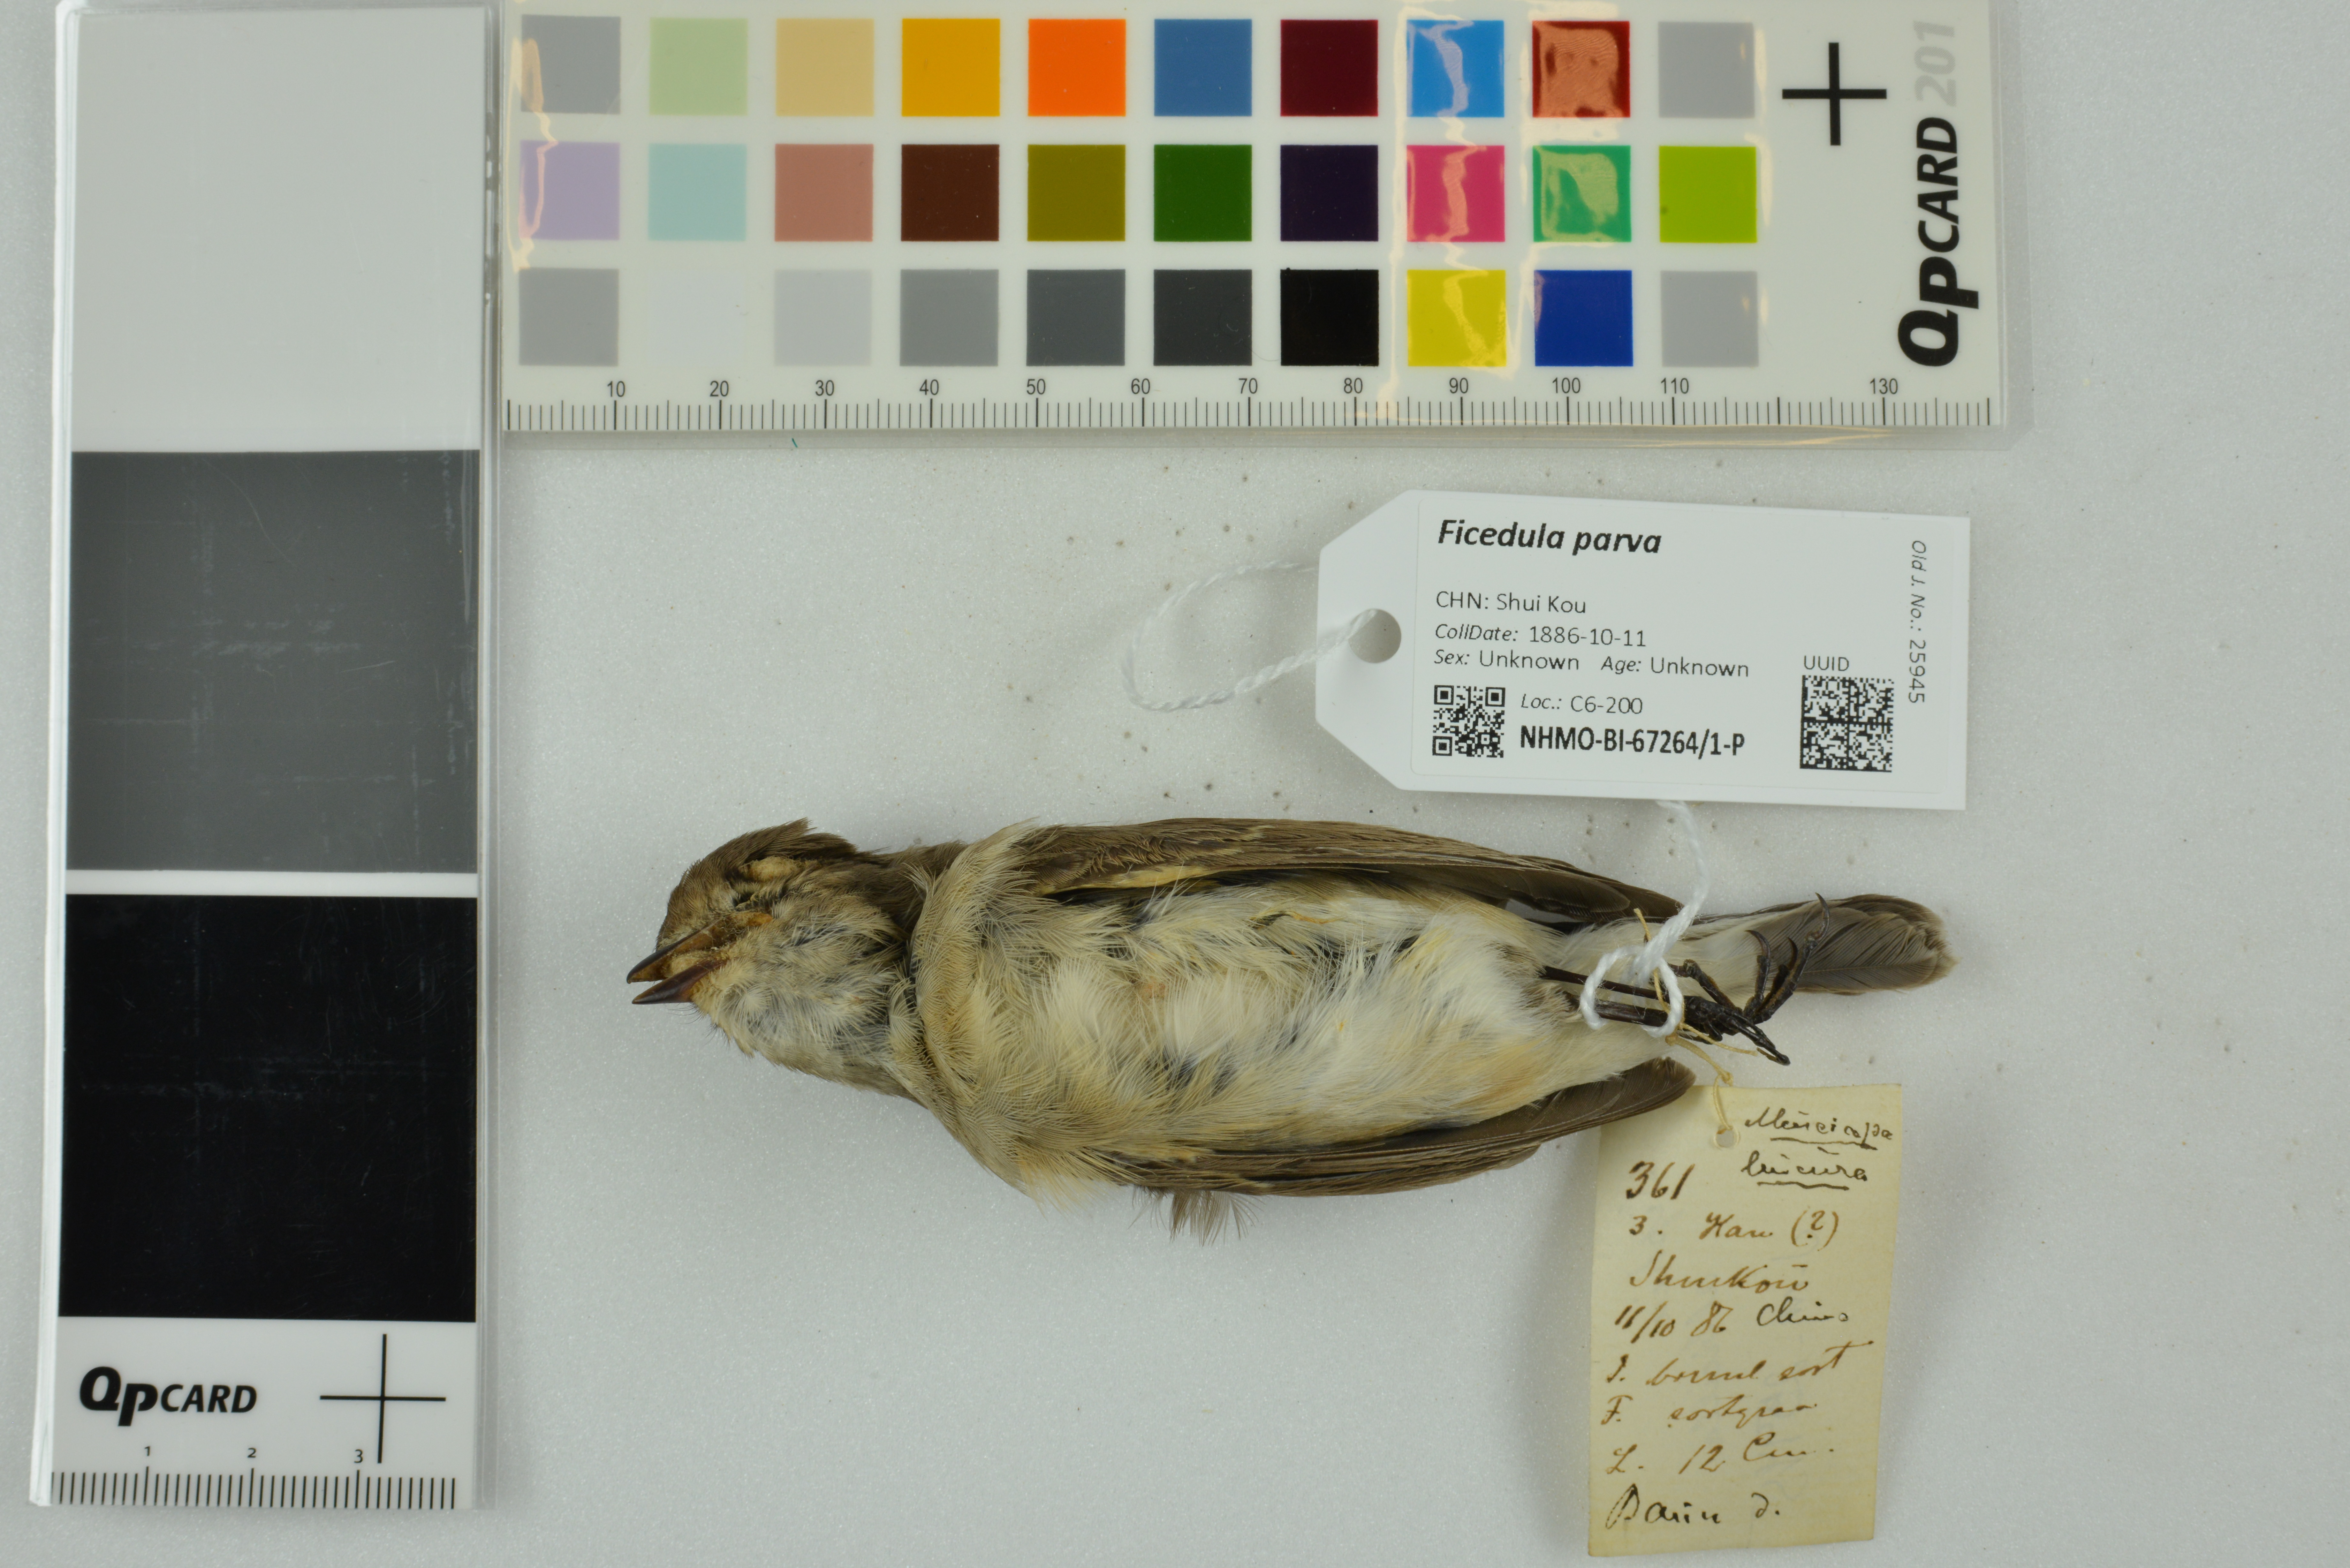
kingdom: Animalia
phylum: Chordata
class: Aves
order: Passeriformes
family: Muscicapidae
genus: Ficedula
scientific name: Ficedula parva
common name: Red-breasted flycatcher
